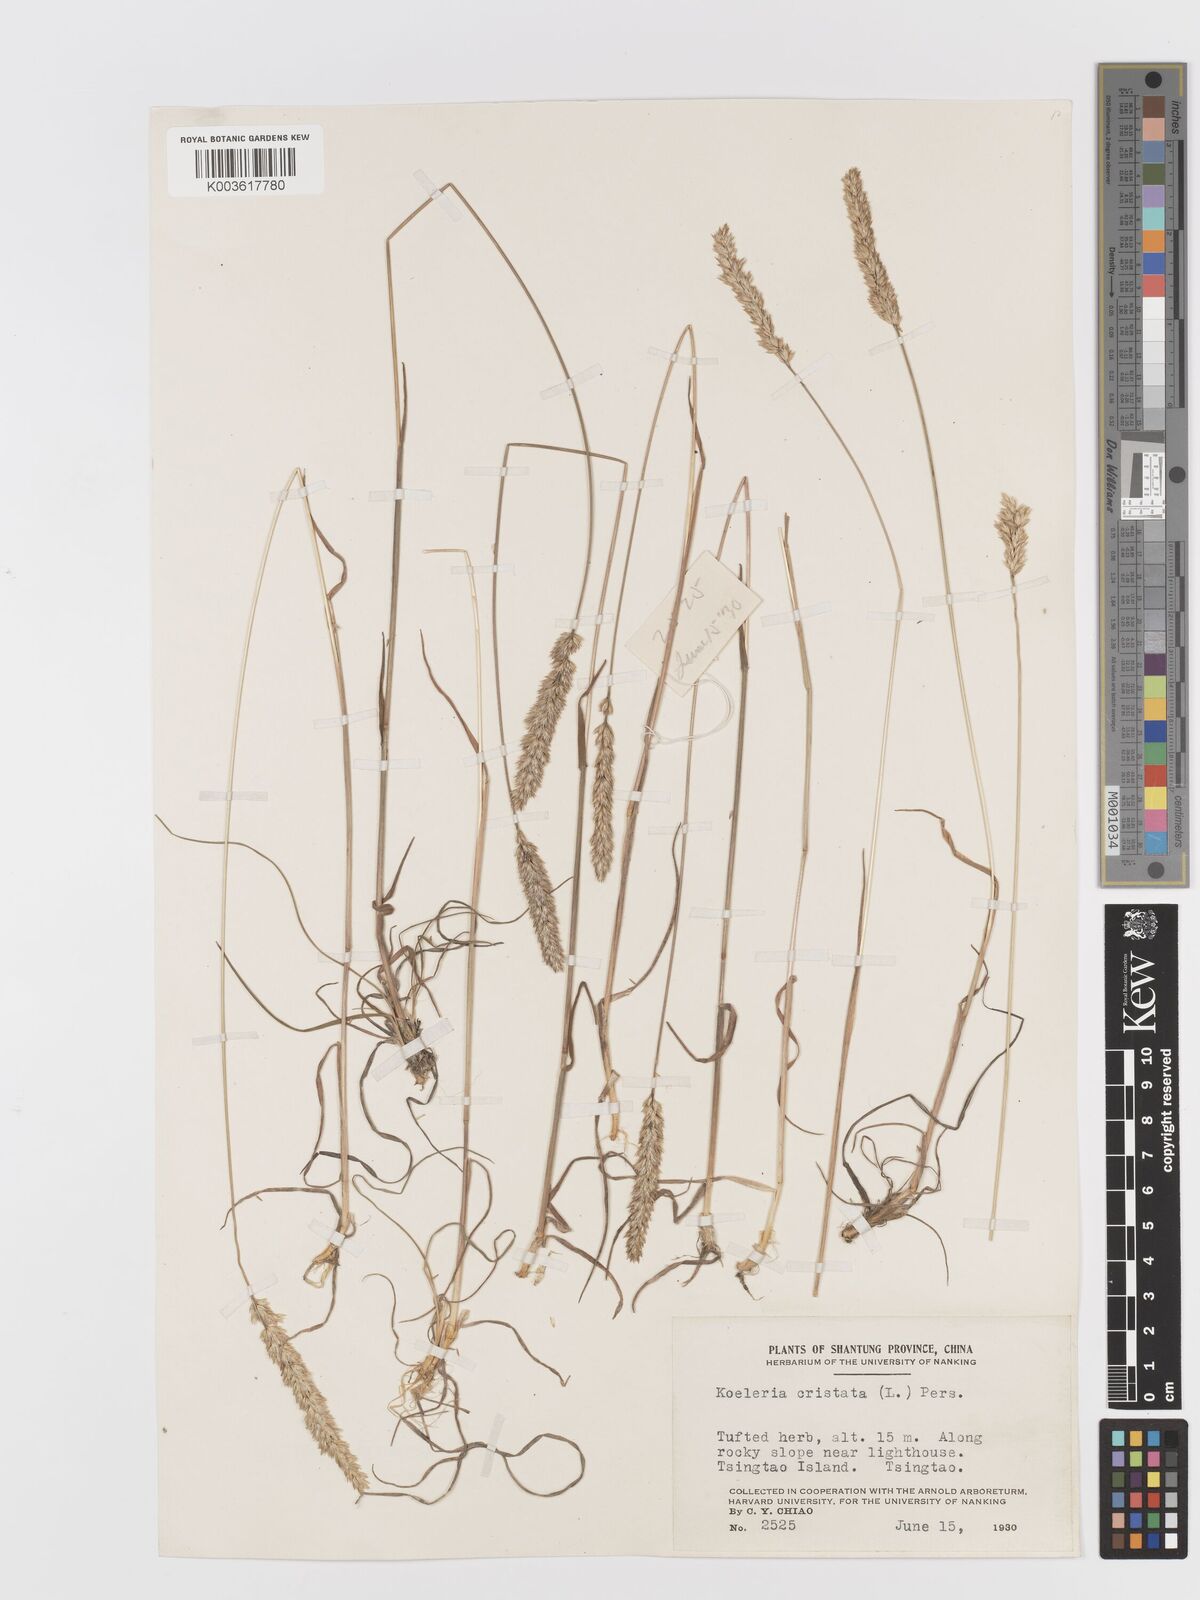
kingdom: Plantae
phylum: Tracheophyta
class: Liliopsida
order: Poales
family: Poaceae
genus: Koeleria
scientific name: Koeleria macrantha
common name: Crested hair-grass
